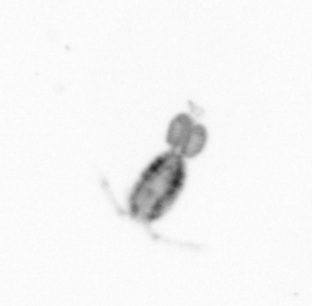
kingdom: Animalia
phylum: Arthropoda
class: Copepoda
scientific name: Copepoda
